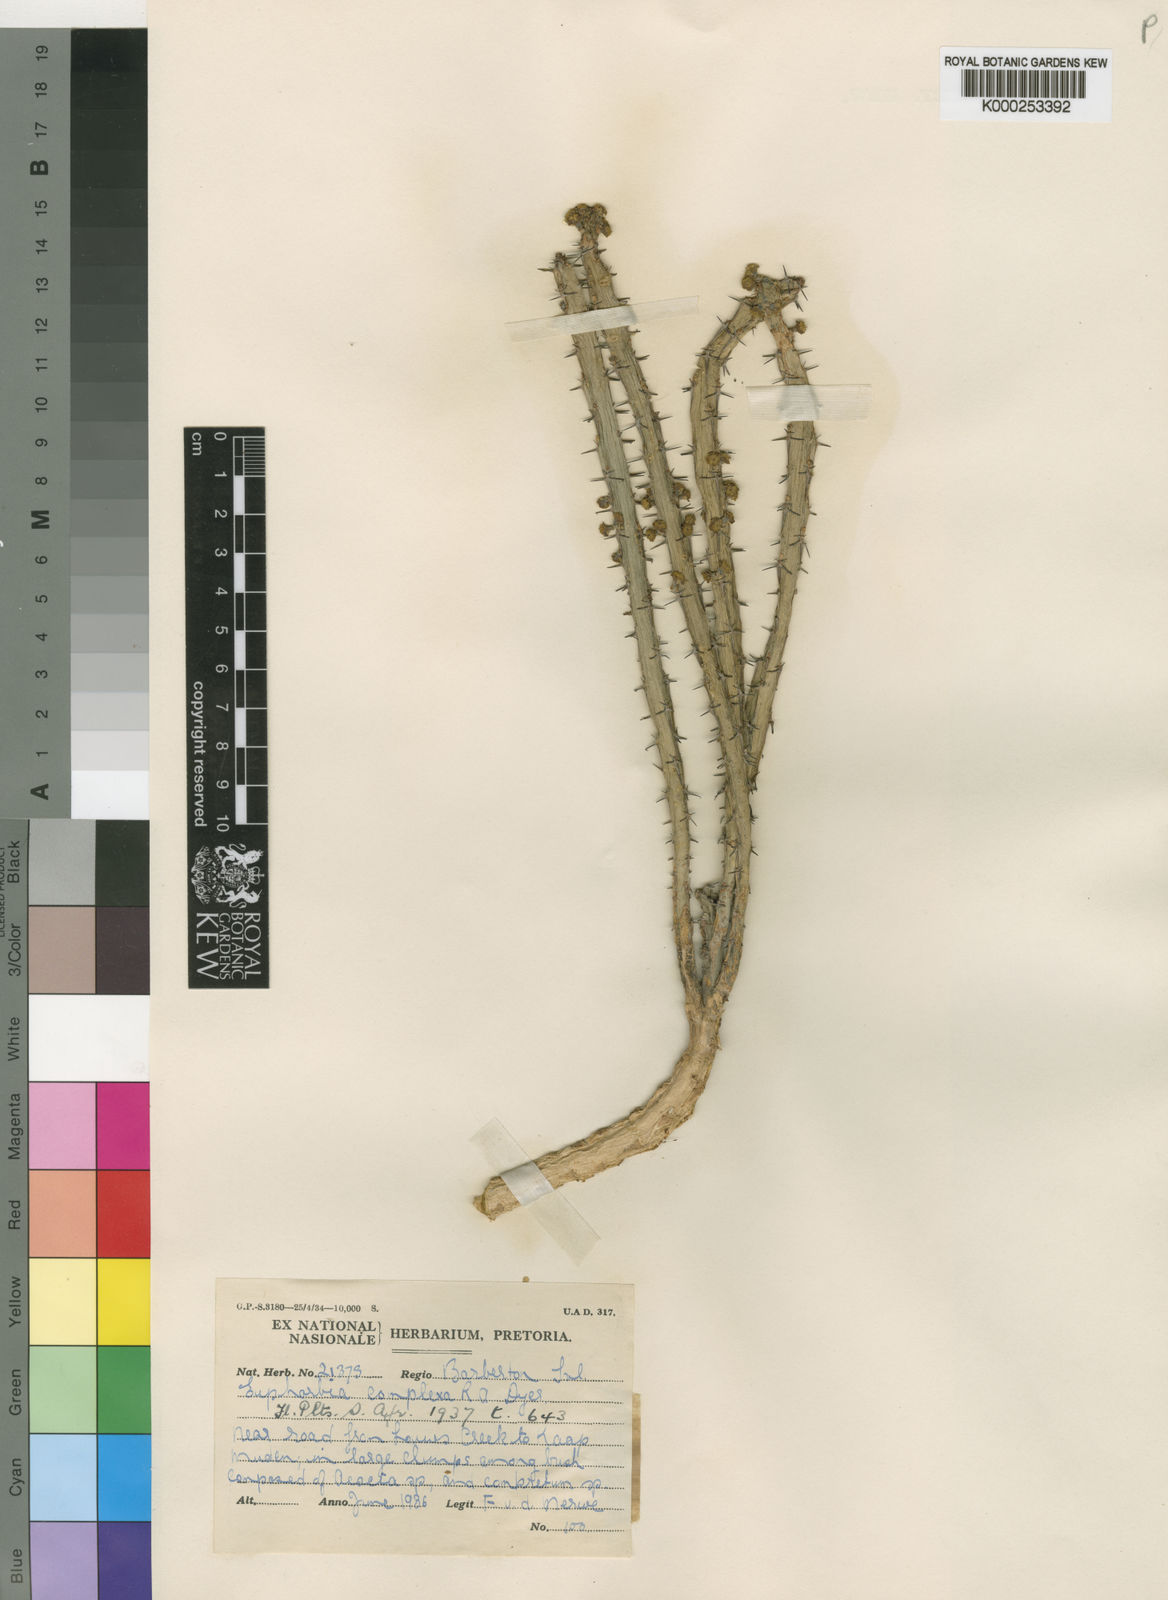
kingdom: Plantae
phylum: Tracheophyta
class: Magnoliopsida
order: Malpighiales
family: Euphorbiaceae
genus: Euphorbia
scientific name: Euphorbia schinzii
